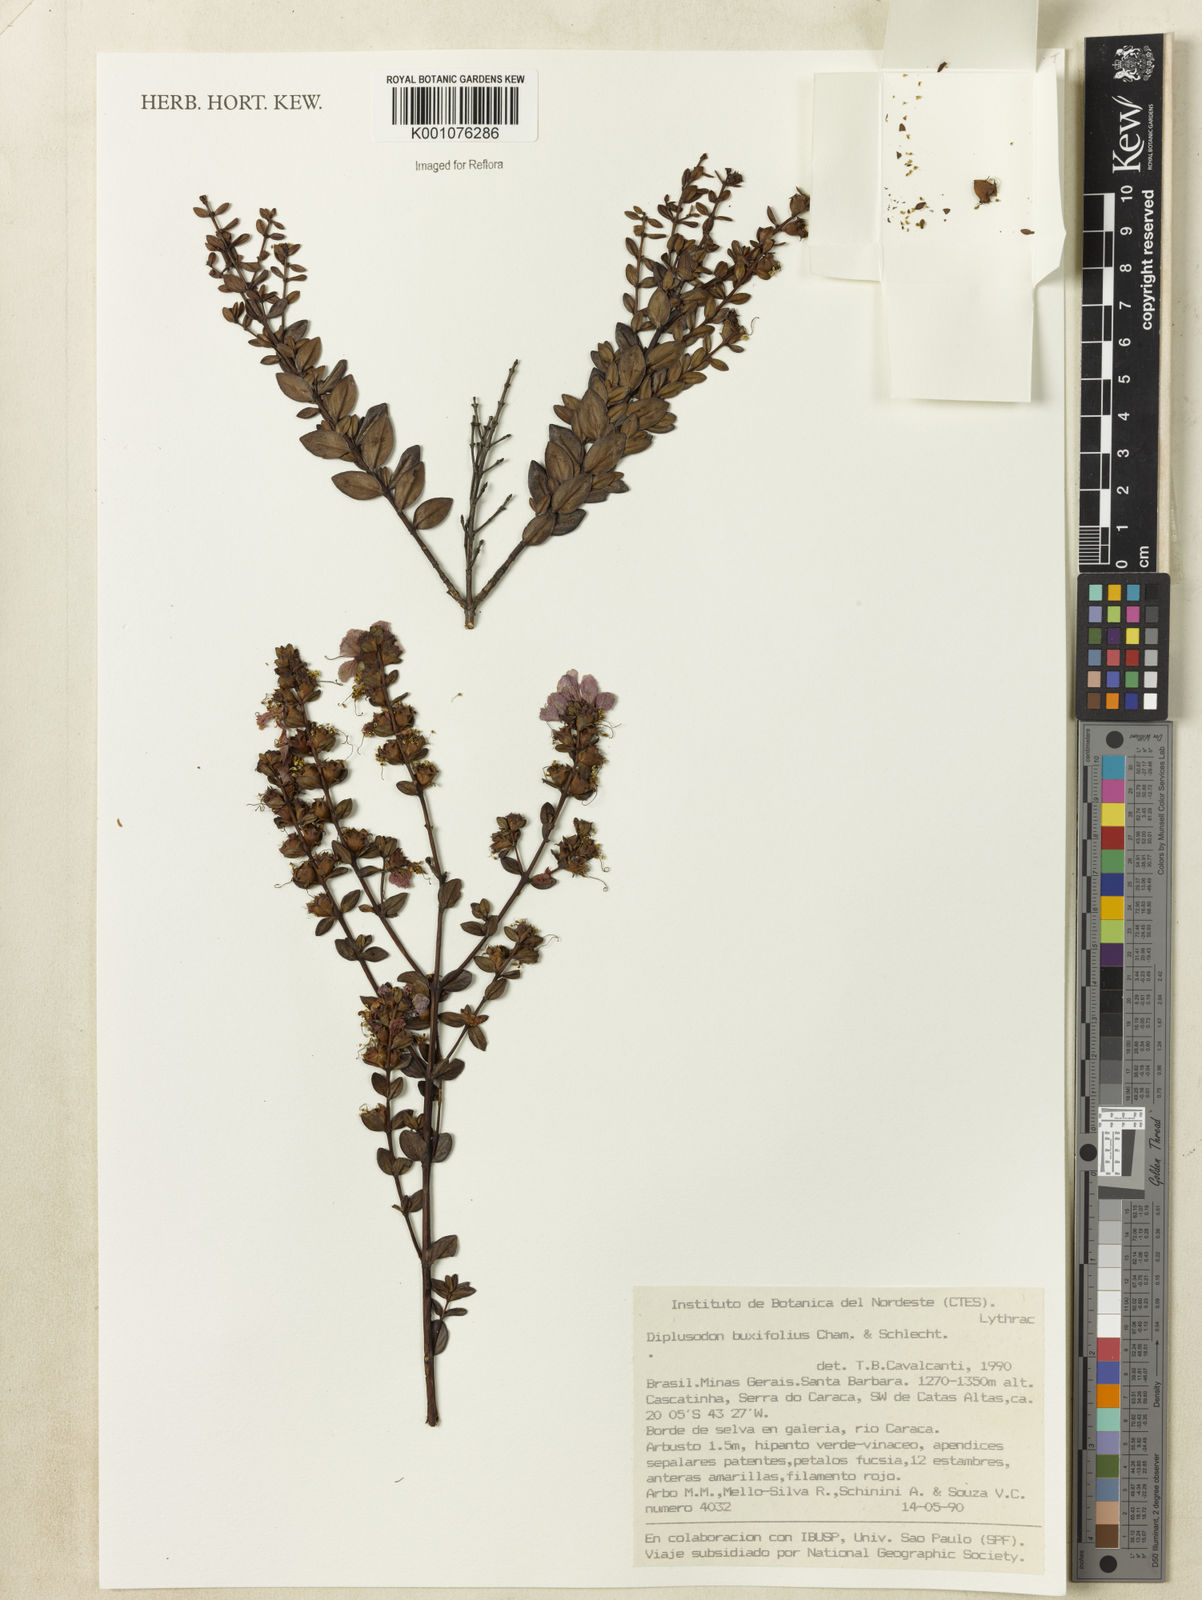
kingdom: Plantae
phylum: Tracheophyta
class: Magnoliopsida
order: Myrtales
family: Lythraceae
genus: Diplusodon
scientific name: Diplusodon quintuplinervius
